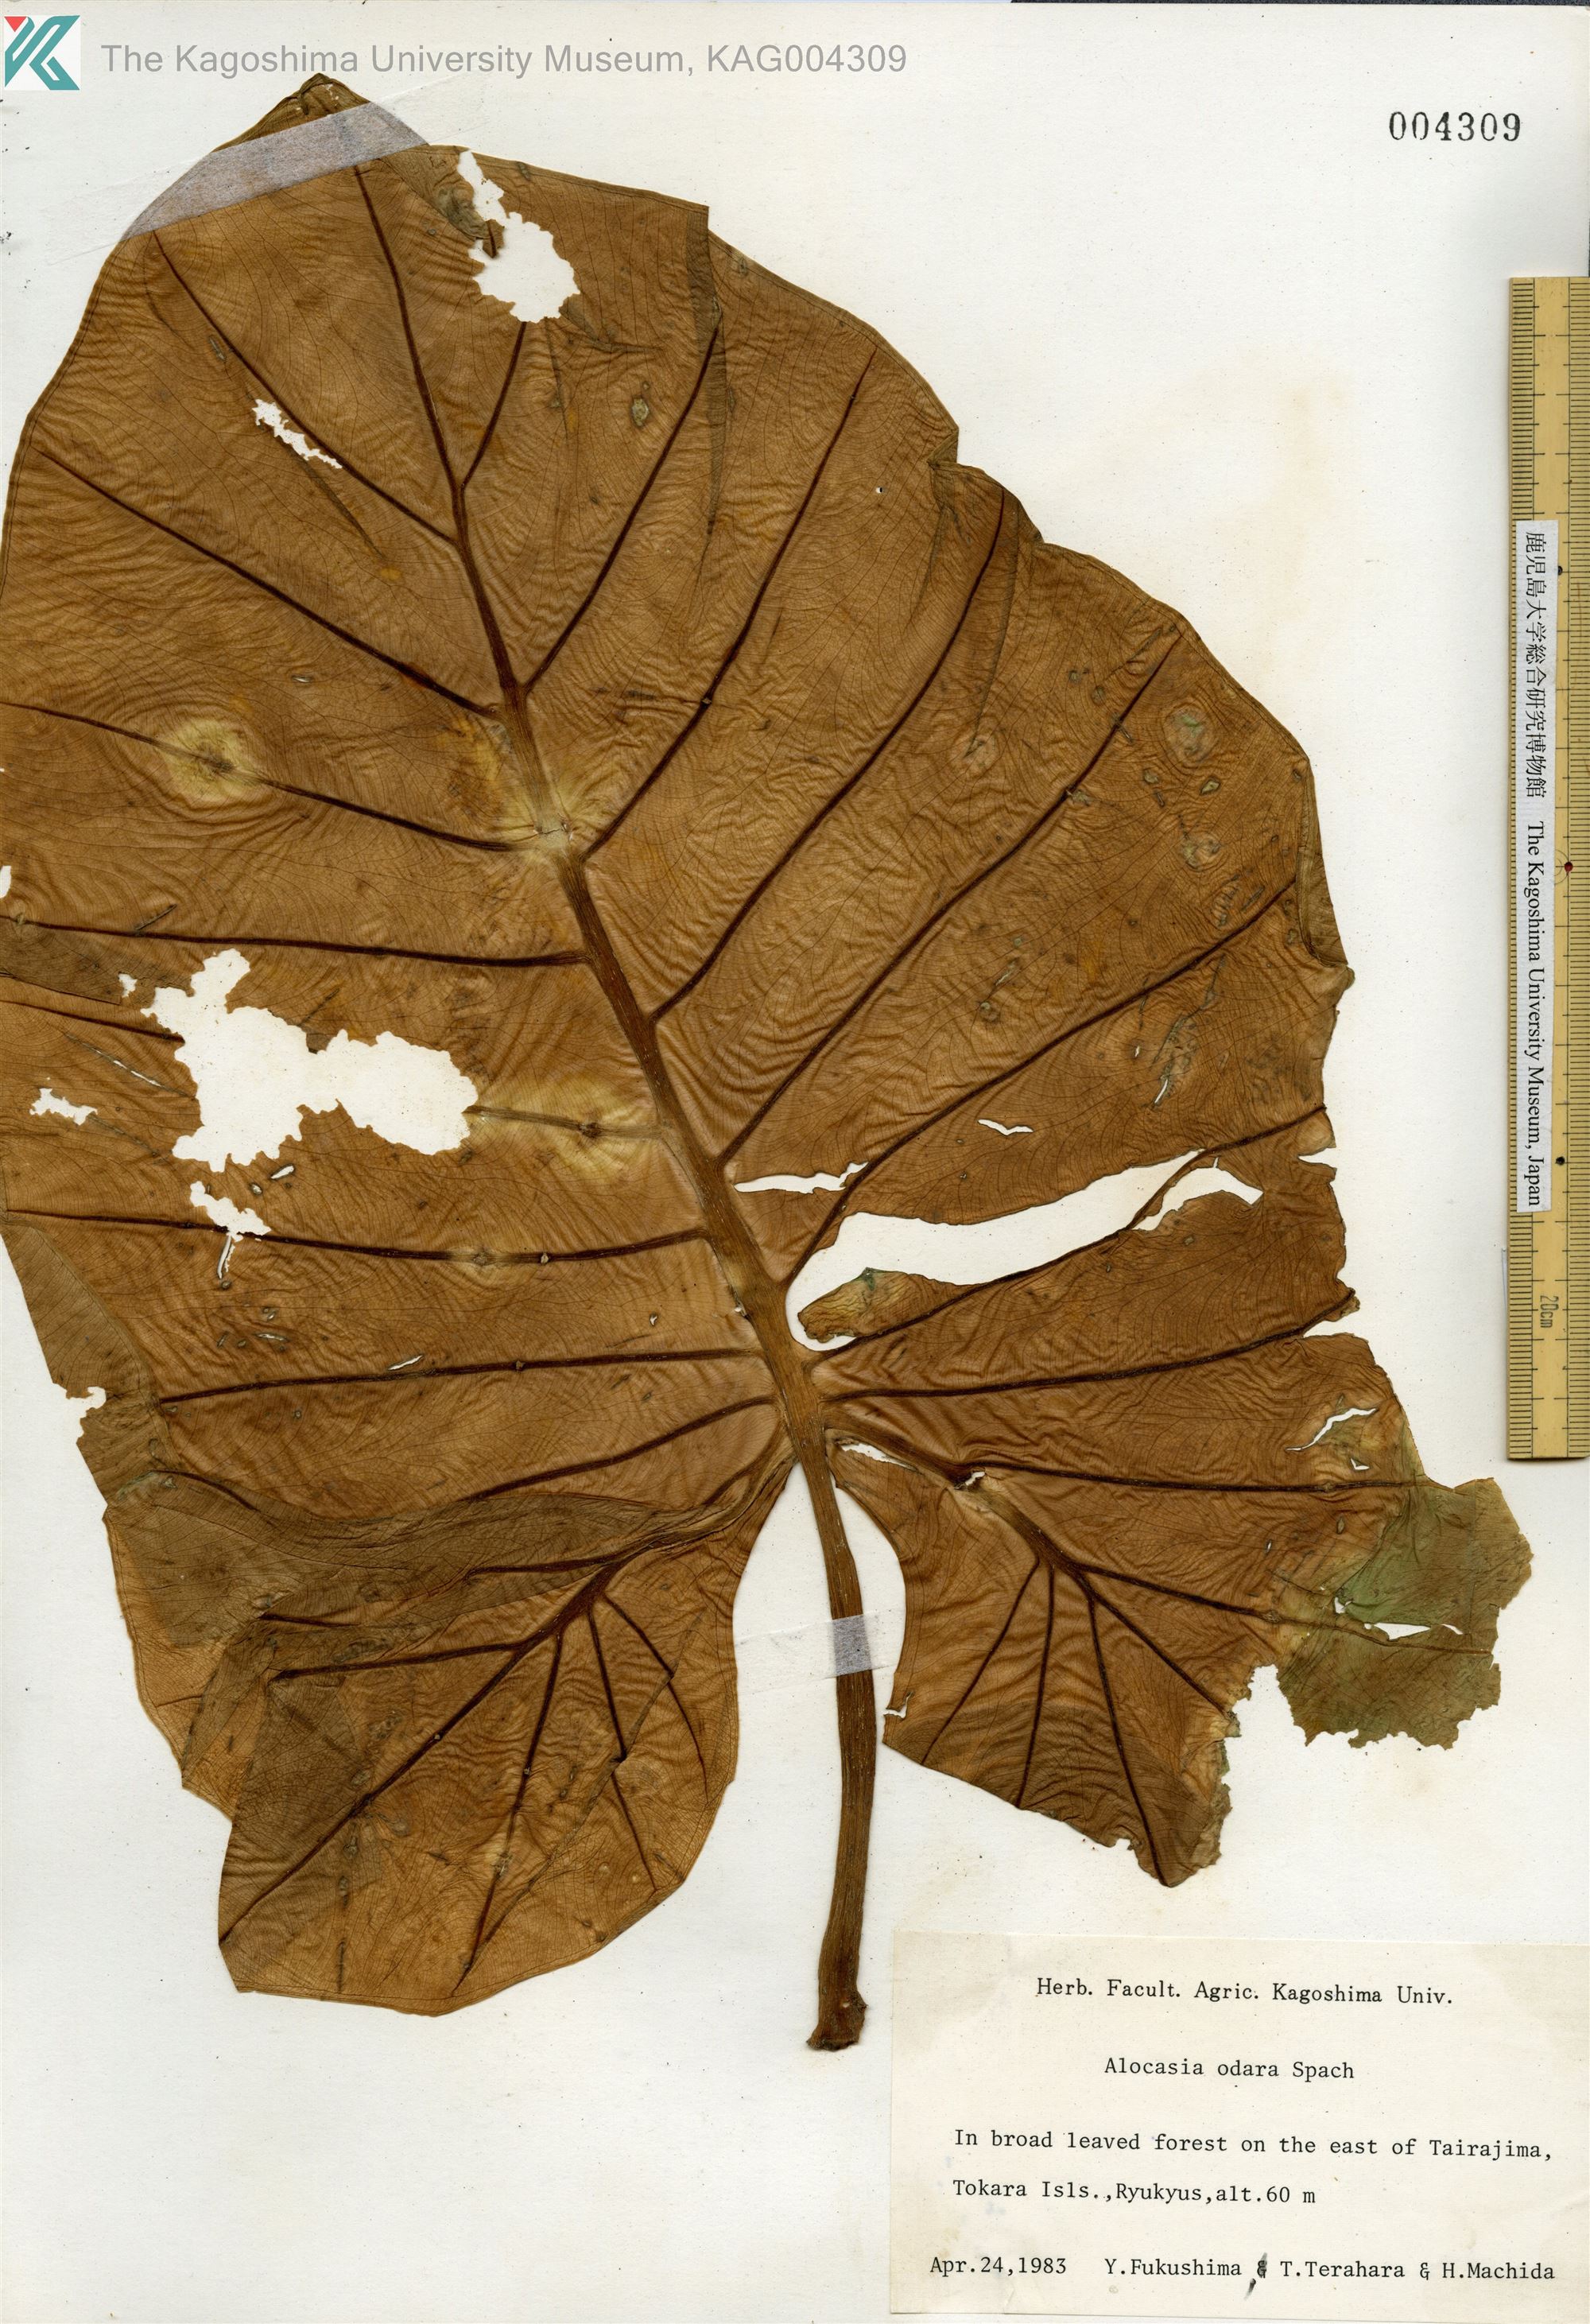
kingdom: Plantae
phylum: Tracheophyta
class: Liliopsida
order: Alismatales
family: Araceae
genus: Alocasia
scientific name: Alocasia odora
